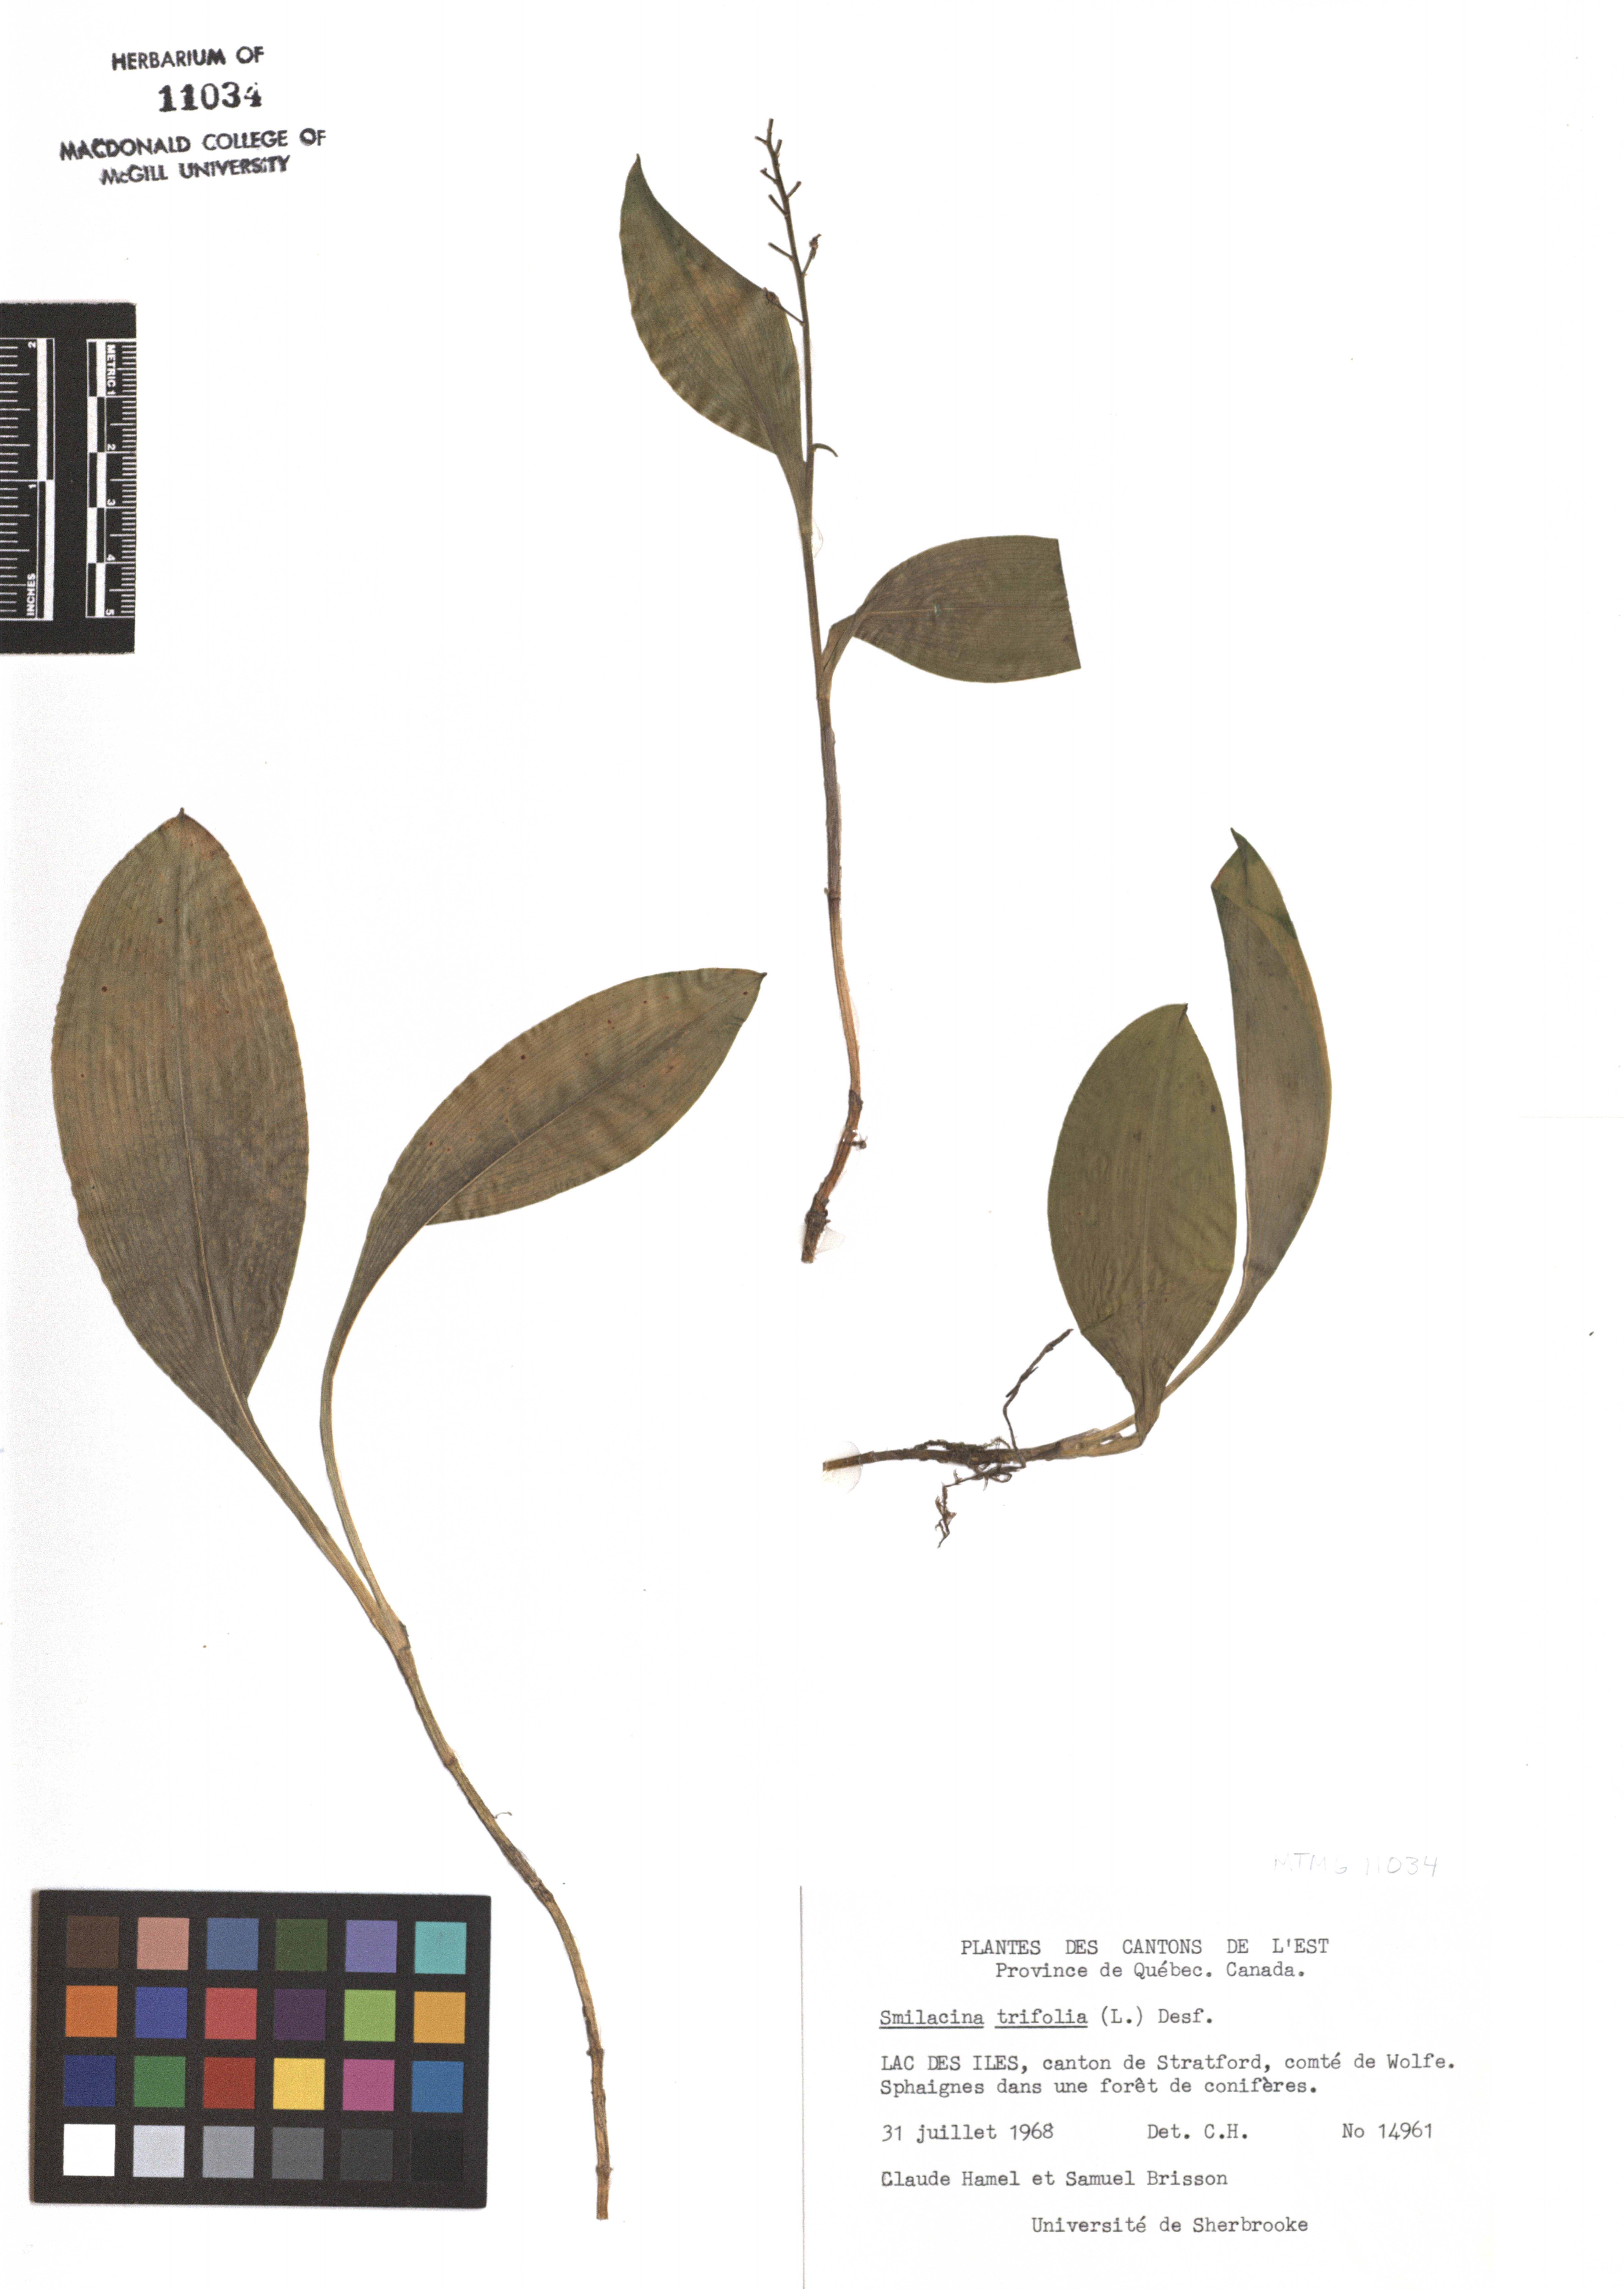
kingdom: Plantae
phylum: Tracheophyta
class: Liliopsida
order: Asparagales
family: Asparagaceae
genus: Maianthemum
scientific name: Maianthemum trifolium
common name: Swamp false solomon's seal
